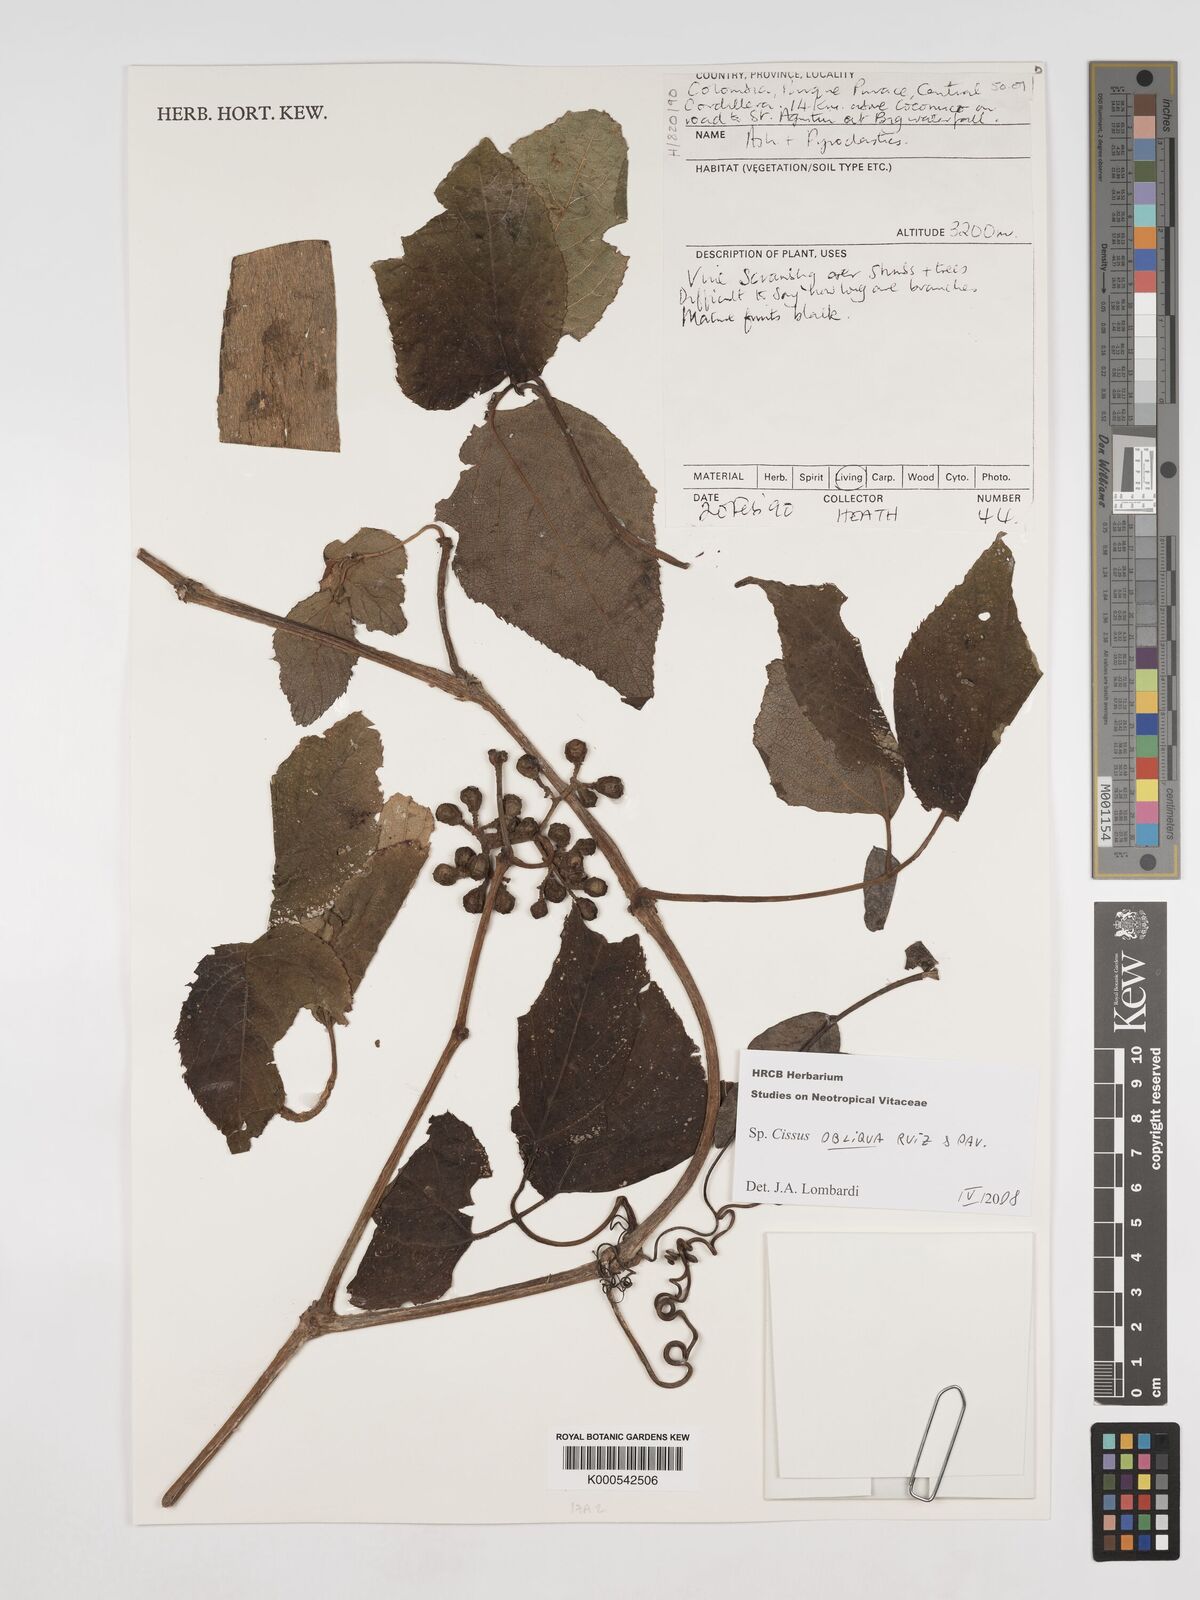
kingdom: Plantae
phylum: Tracheophyta
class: Magnoliopsida
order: Vitales
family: Vitaceae
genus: Cissus
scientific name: Cissus obliqua
